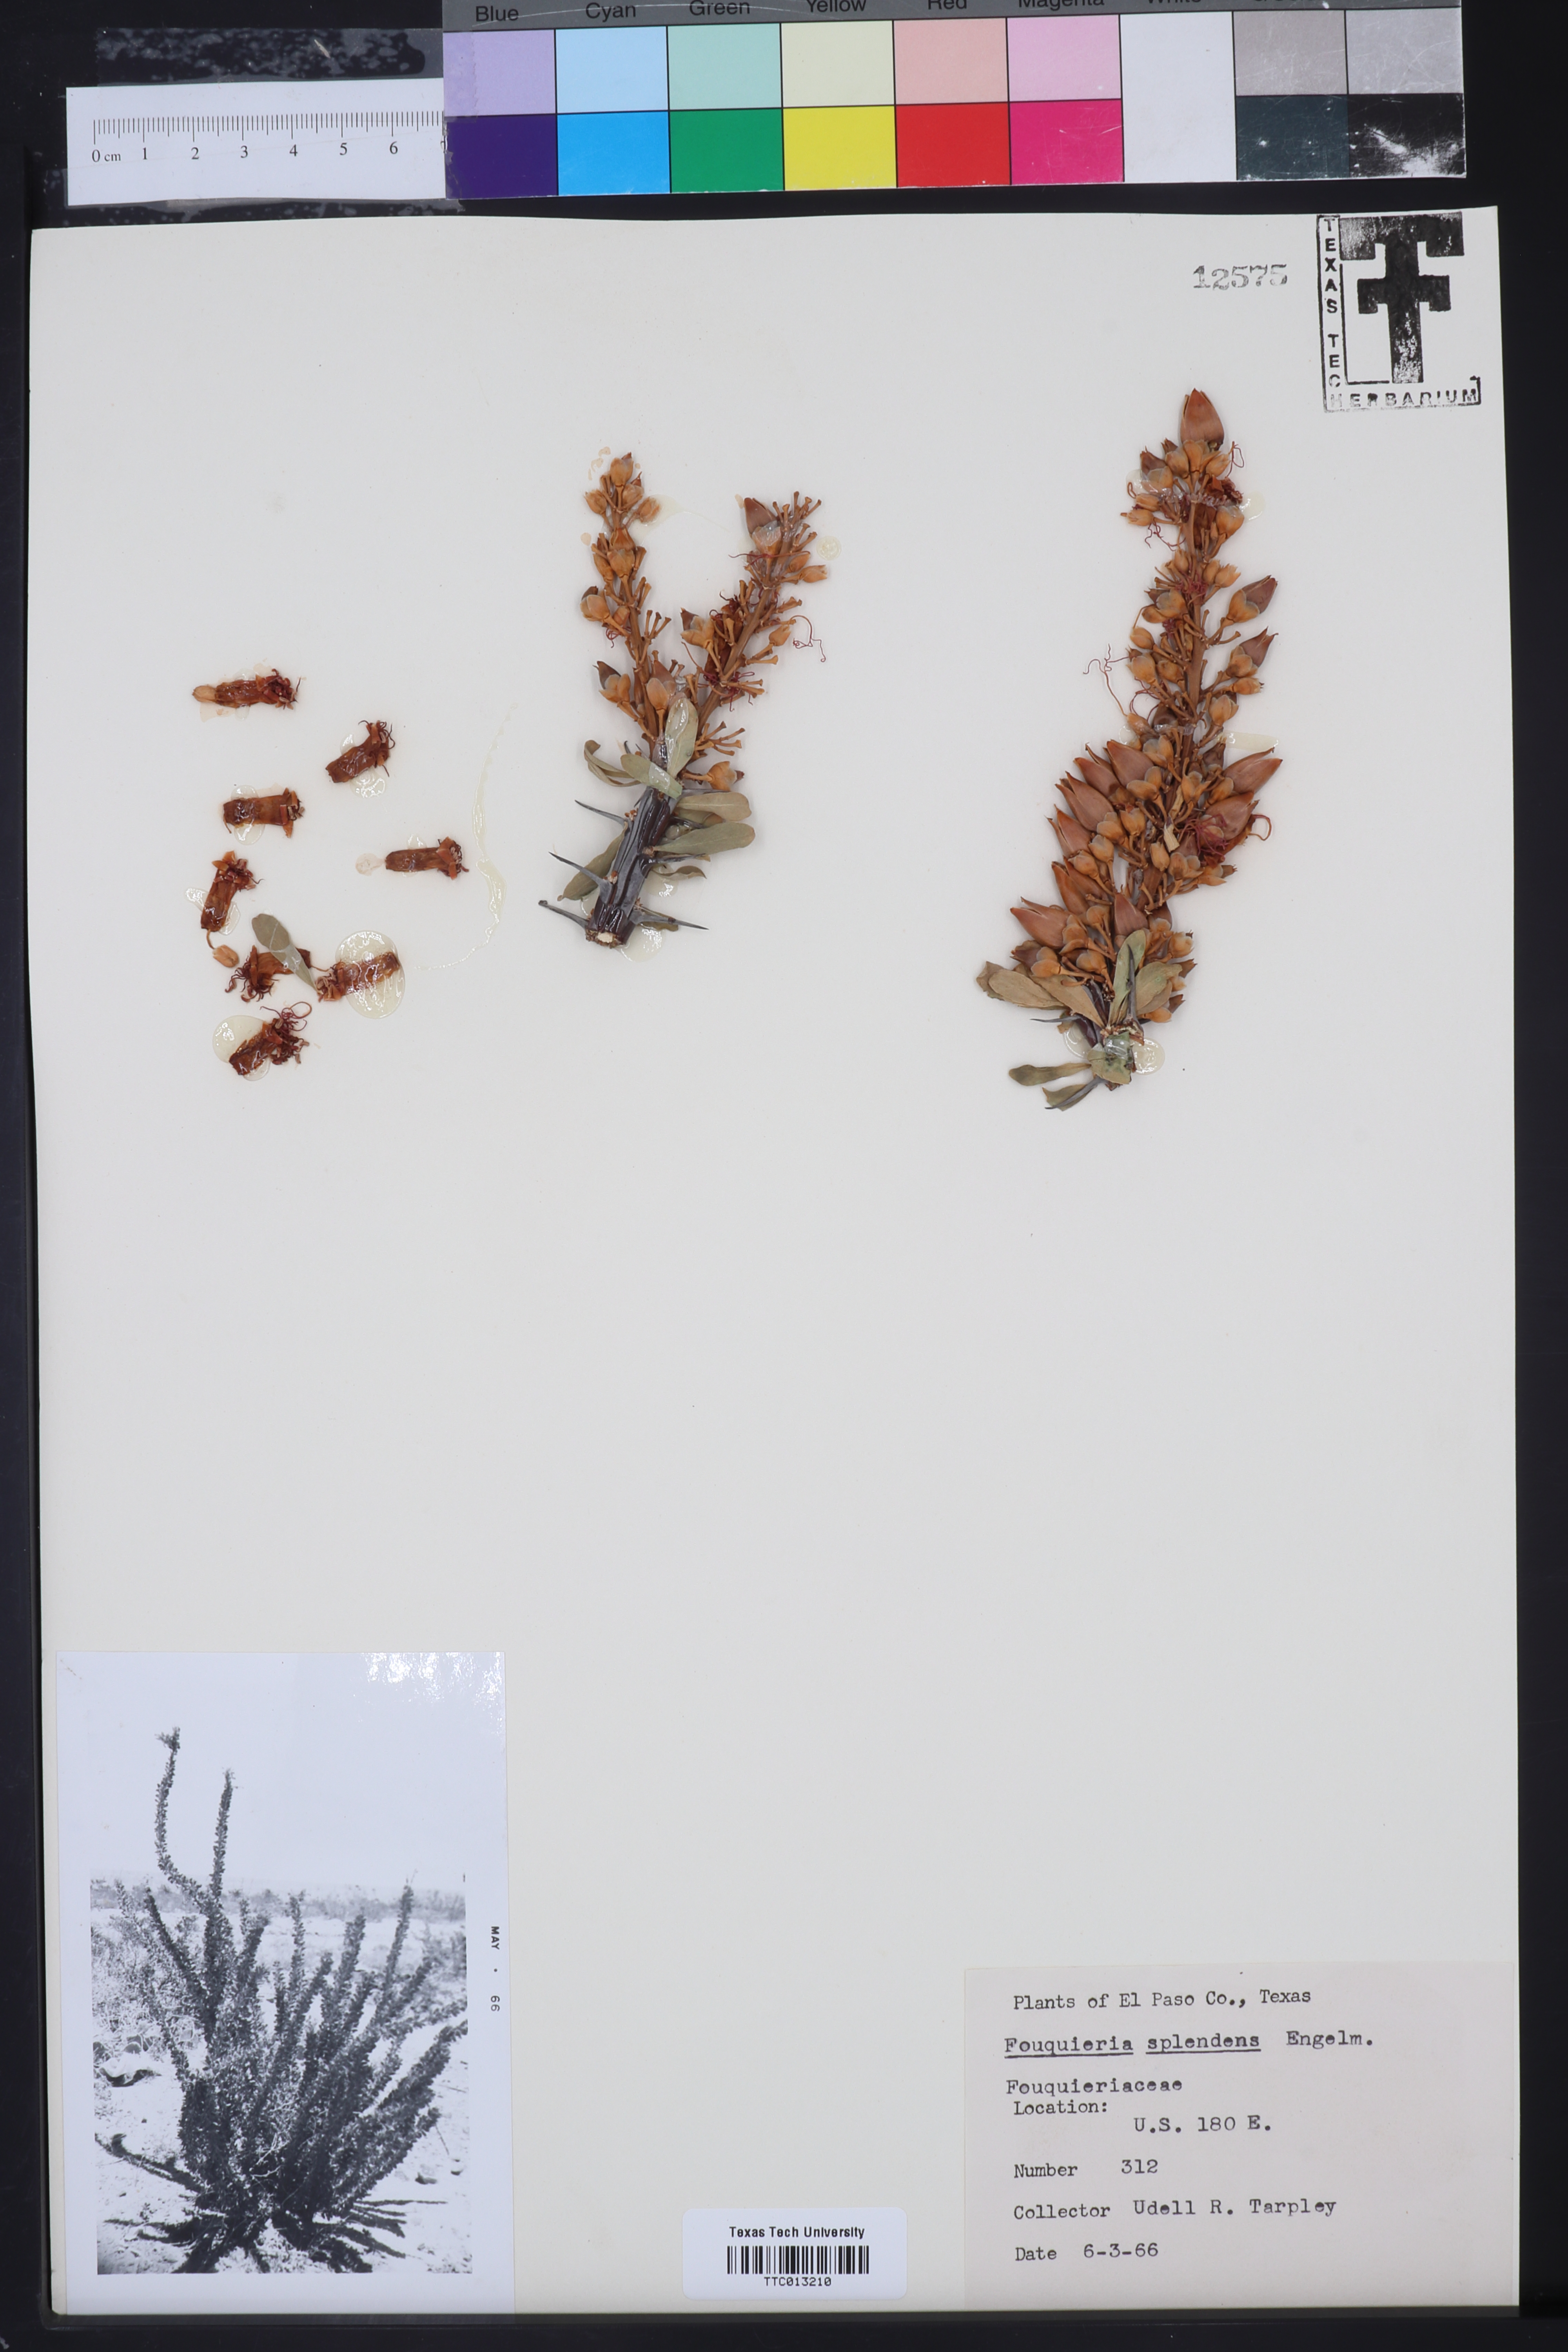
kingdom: Plantae
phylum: Tracheophyta
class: Magnoliopsida
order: Ericales
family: Fouquieriaceae
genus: Fouquieria
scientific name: Fouquieria splendens
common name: Vine-cactus
